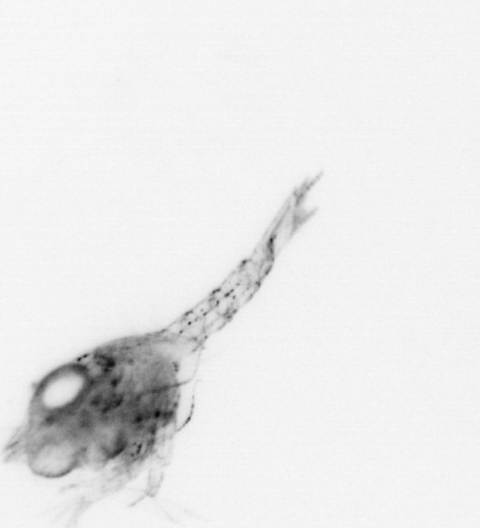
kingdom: Animalia
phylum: Arthropoda
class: Malacostraca
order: Decapoda
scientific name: Decapoda
